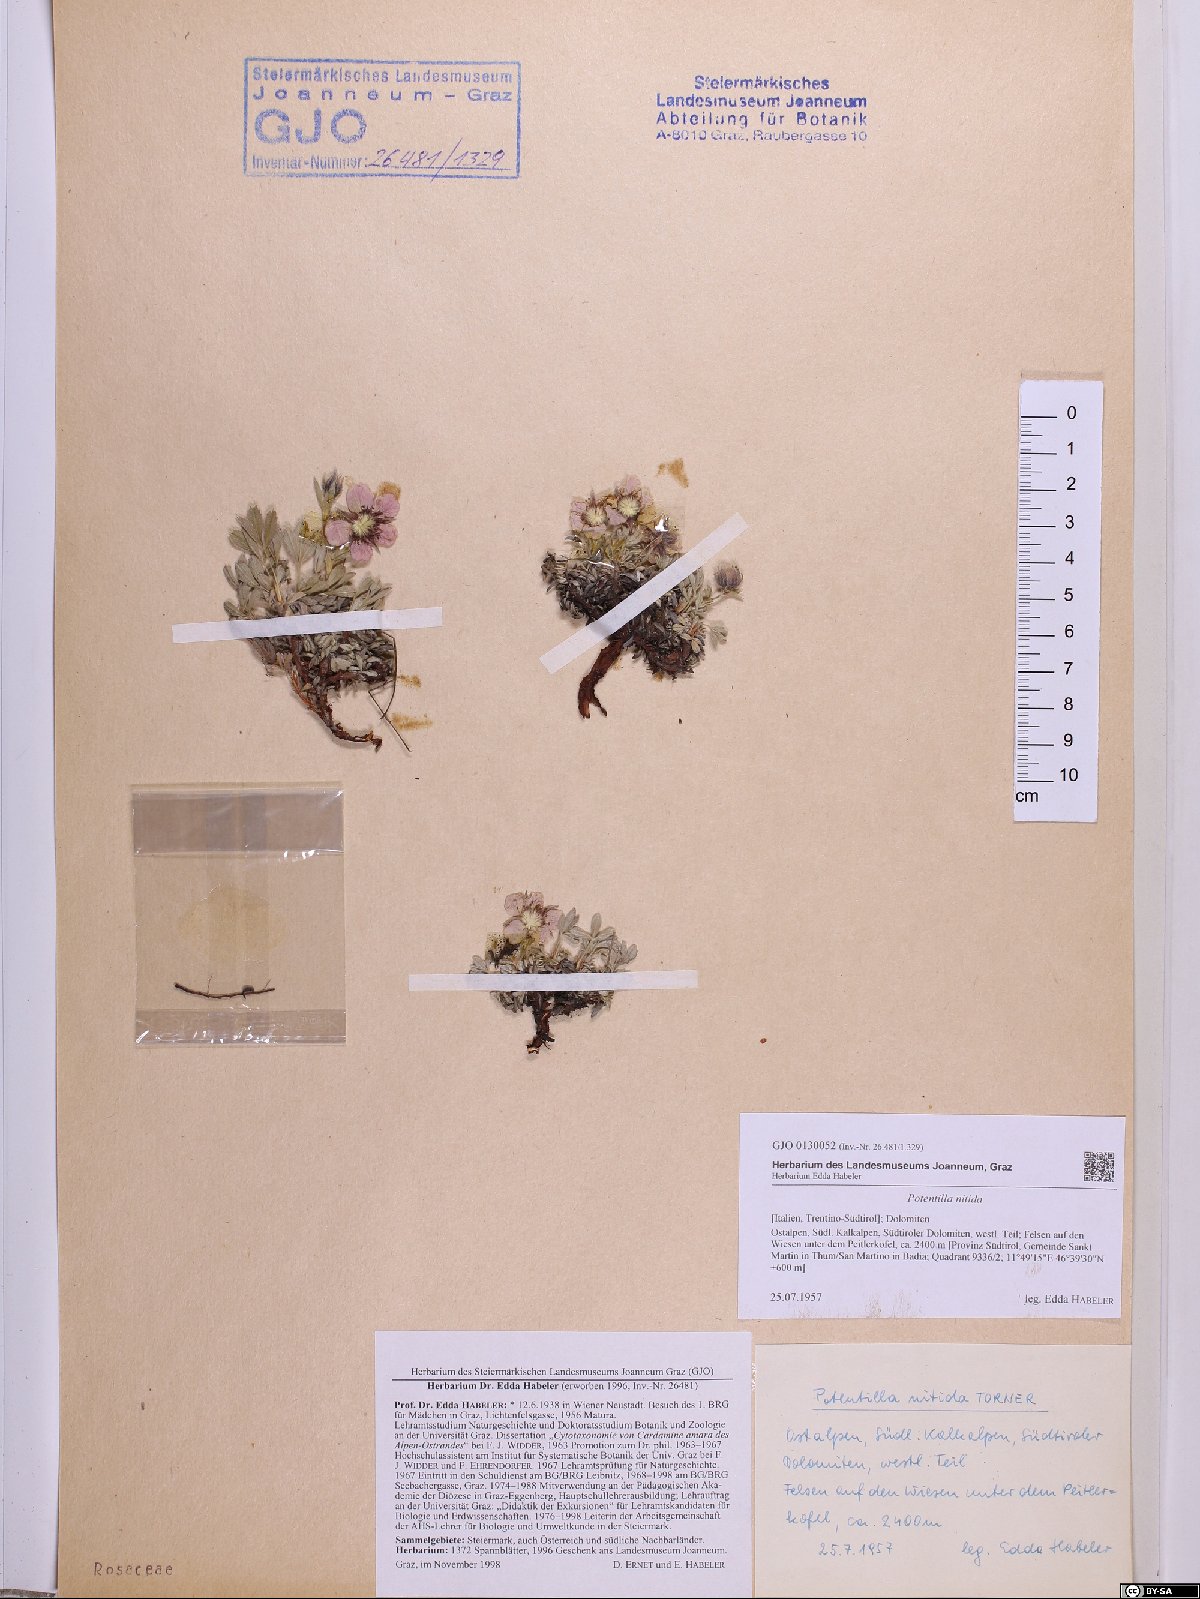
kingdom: Plantae
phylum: Tracheophyta
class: Magnoliopsida
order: Rosales
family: Rosaceae
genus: Potentilla
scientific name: Potentilla nitida
